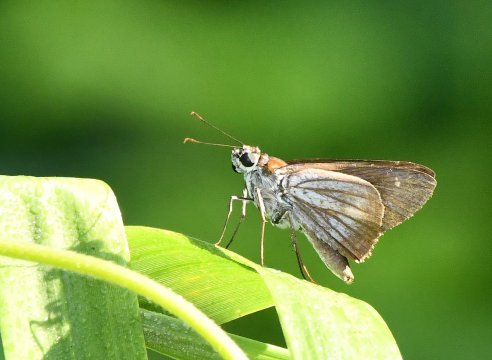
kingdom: Animalia
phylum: Arthropoda
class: Insecta
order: Lepidoptera
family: Hesperiidae
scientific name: Hesperiidae
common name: Skippers
